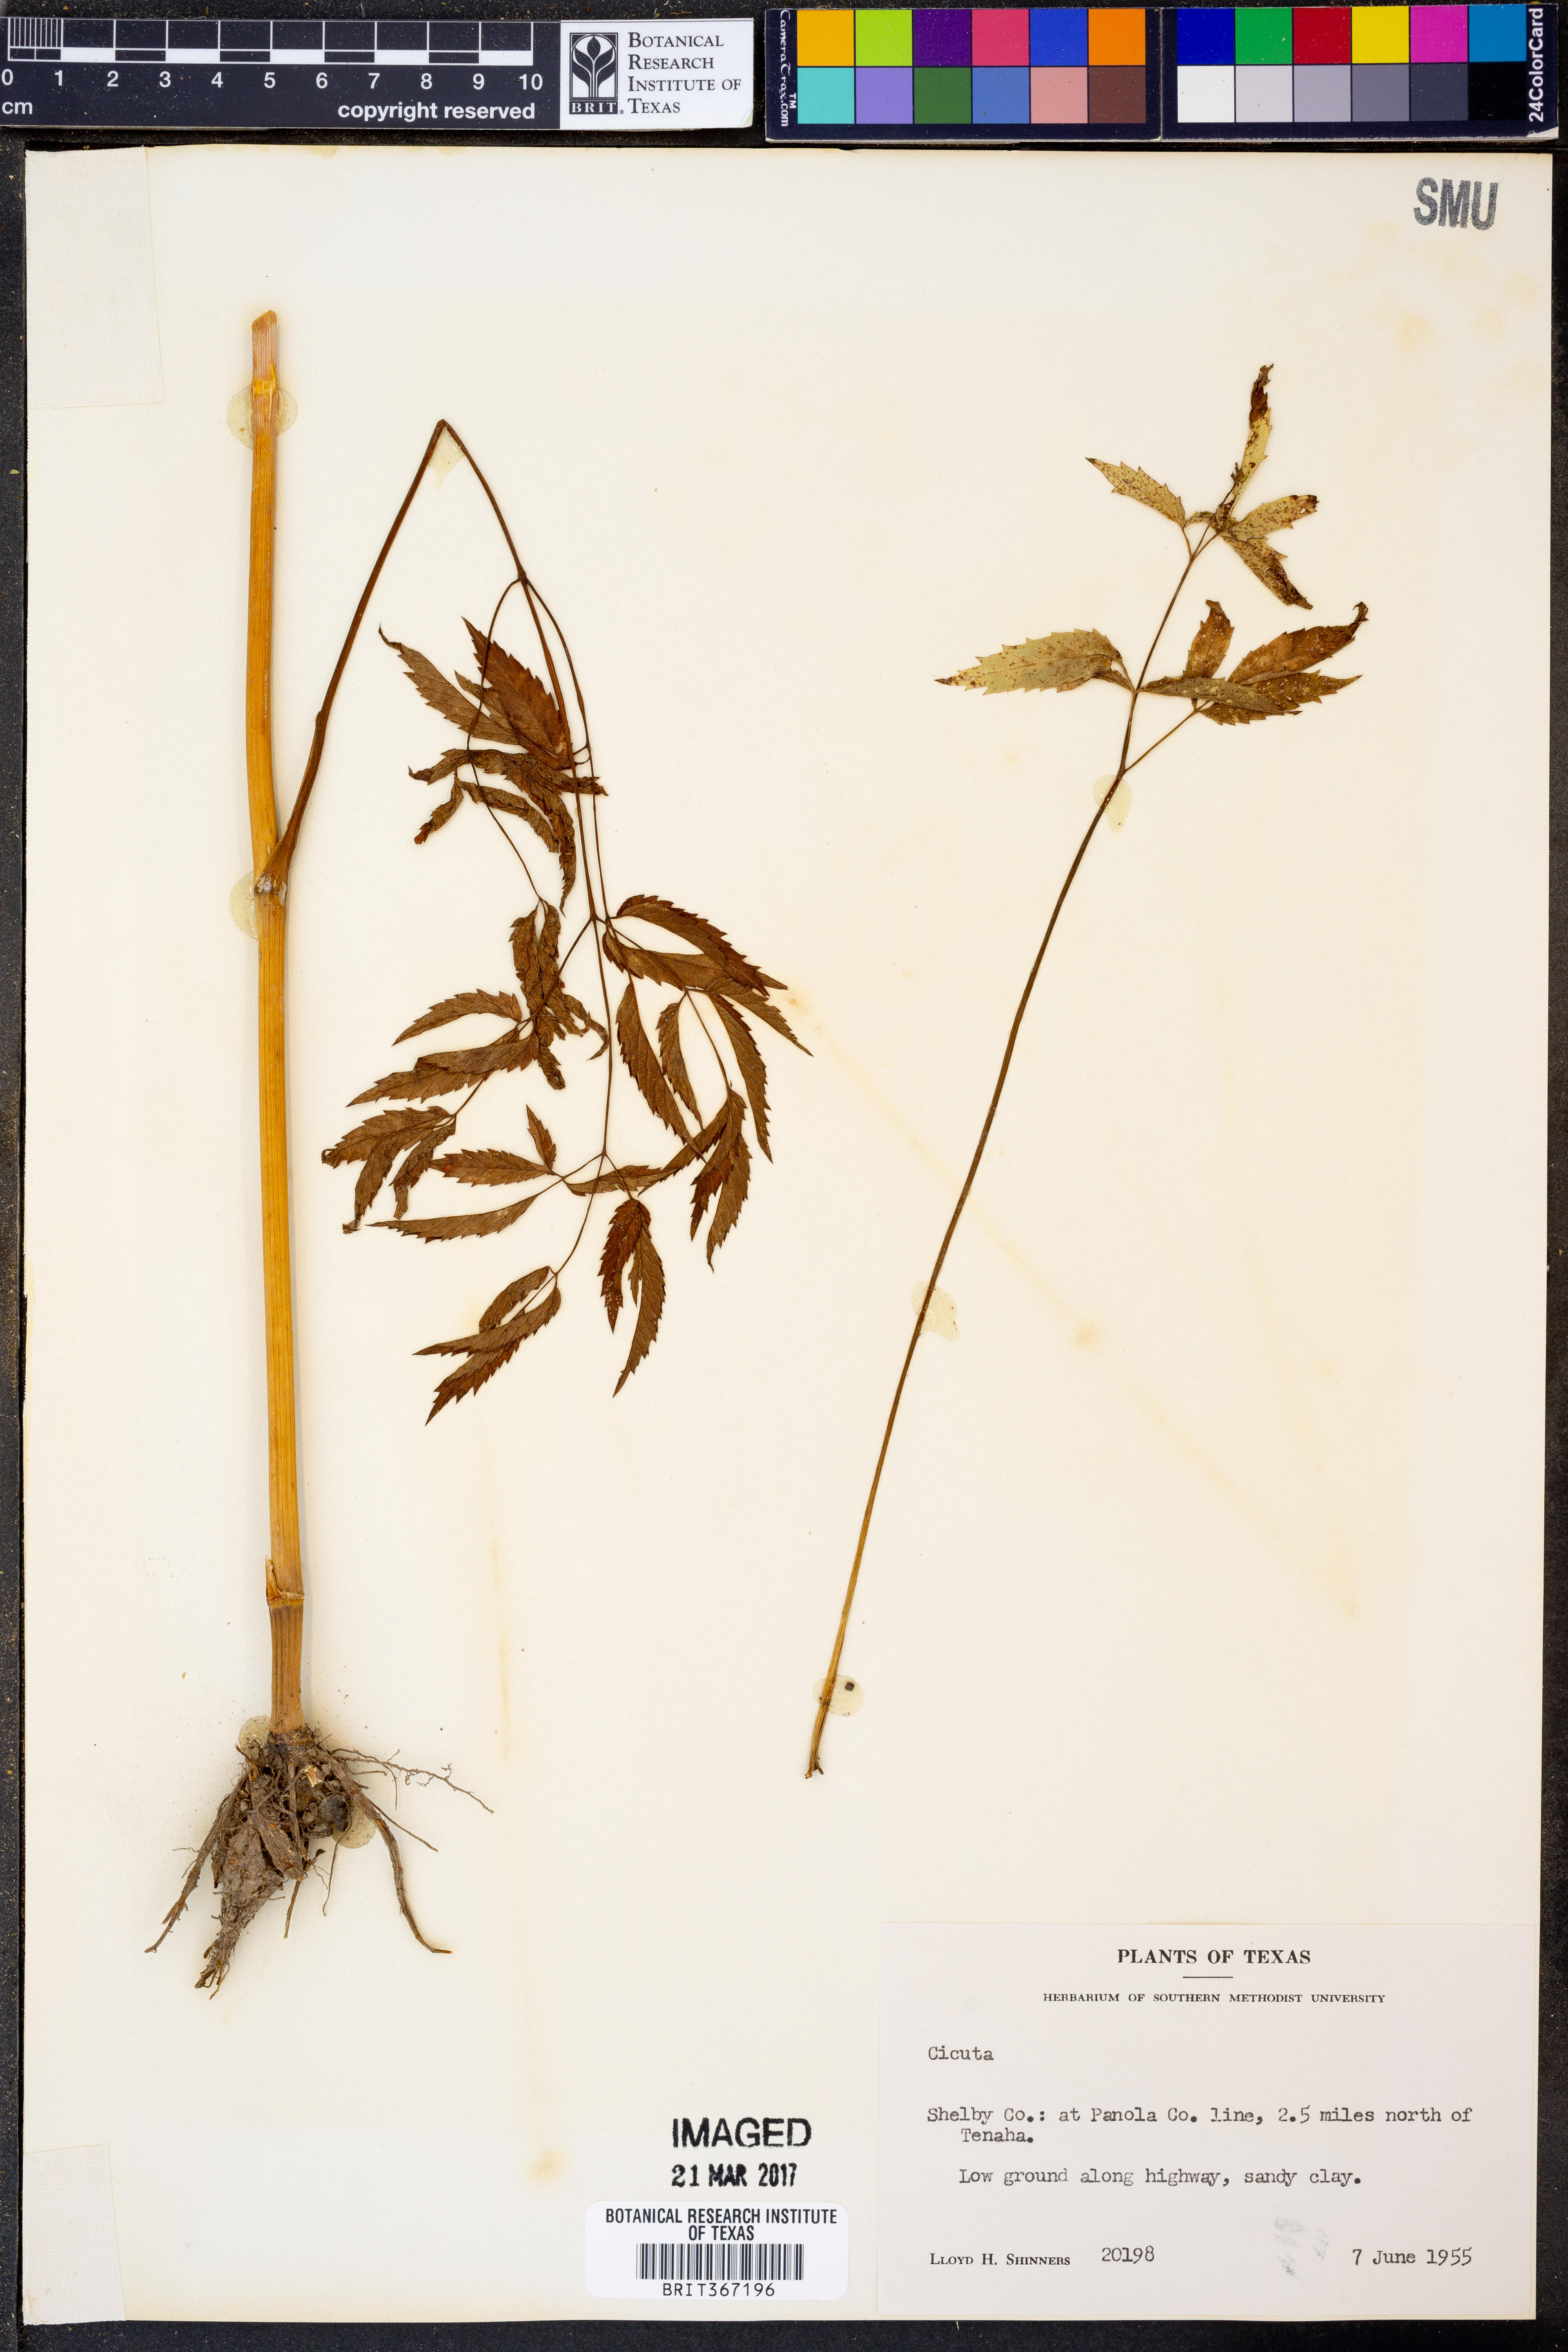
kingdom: Plantae
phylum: Tracheophyta
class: Magnoliopsida
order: Apiales
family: Apiaceae
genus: Cicuta
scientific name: Cicuta
